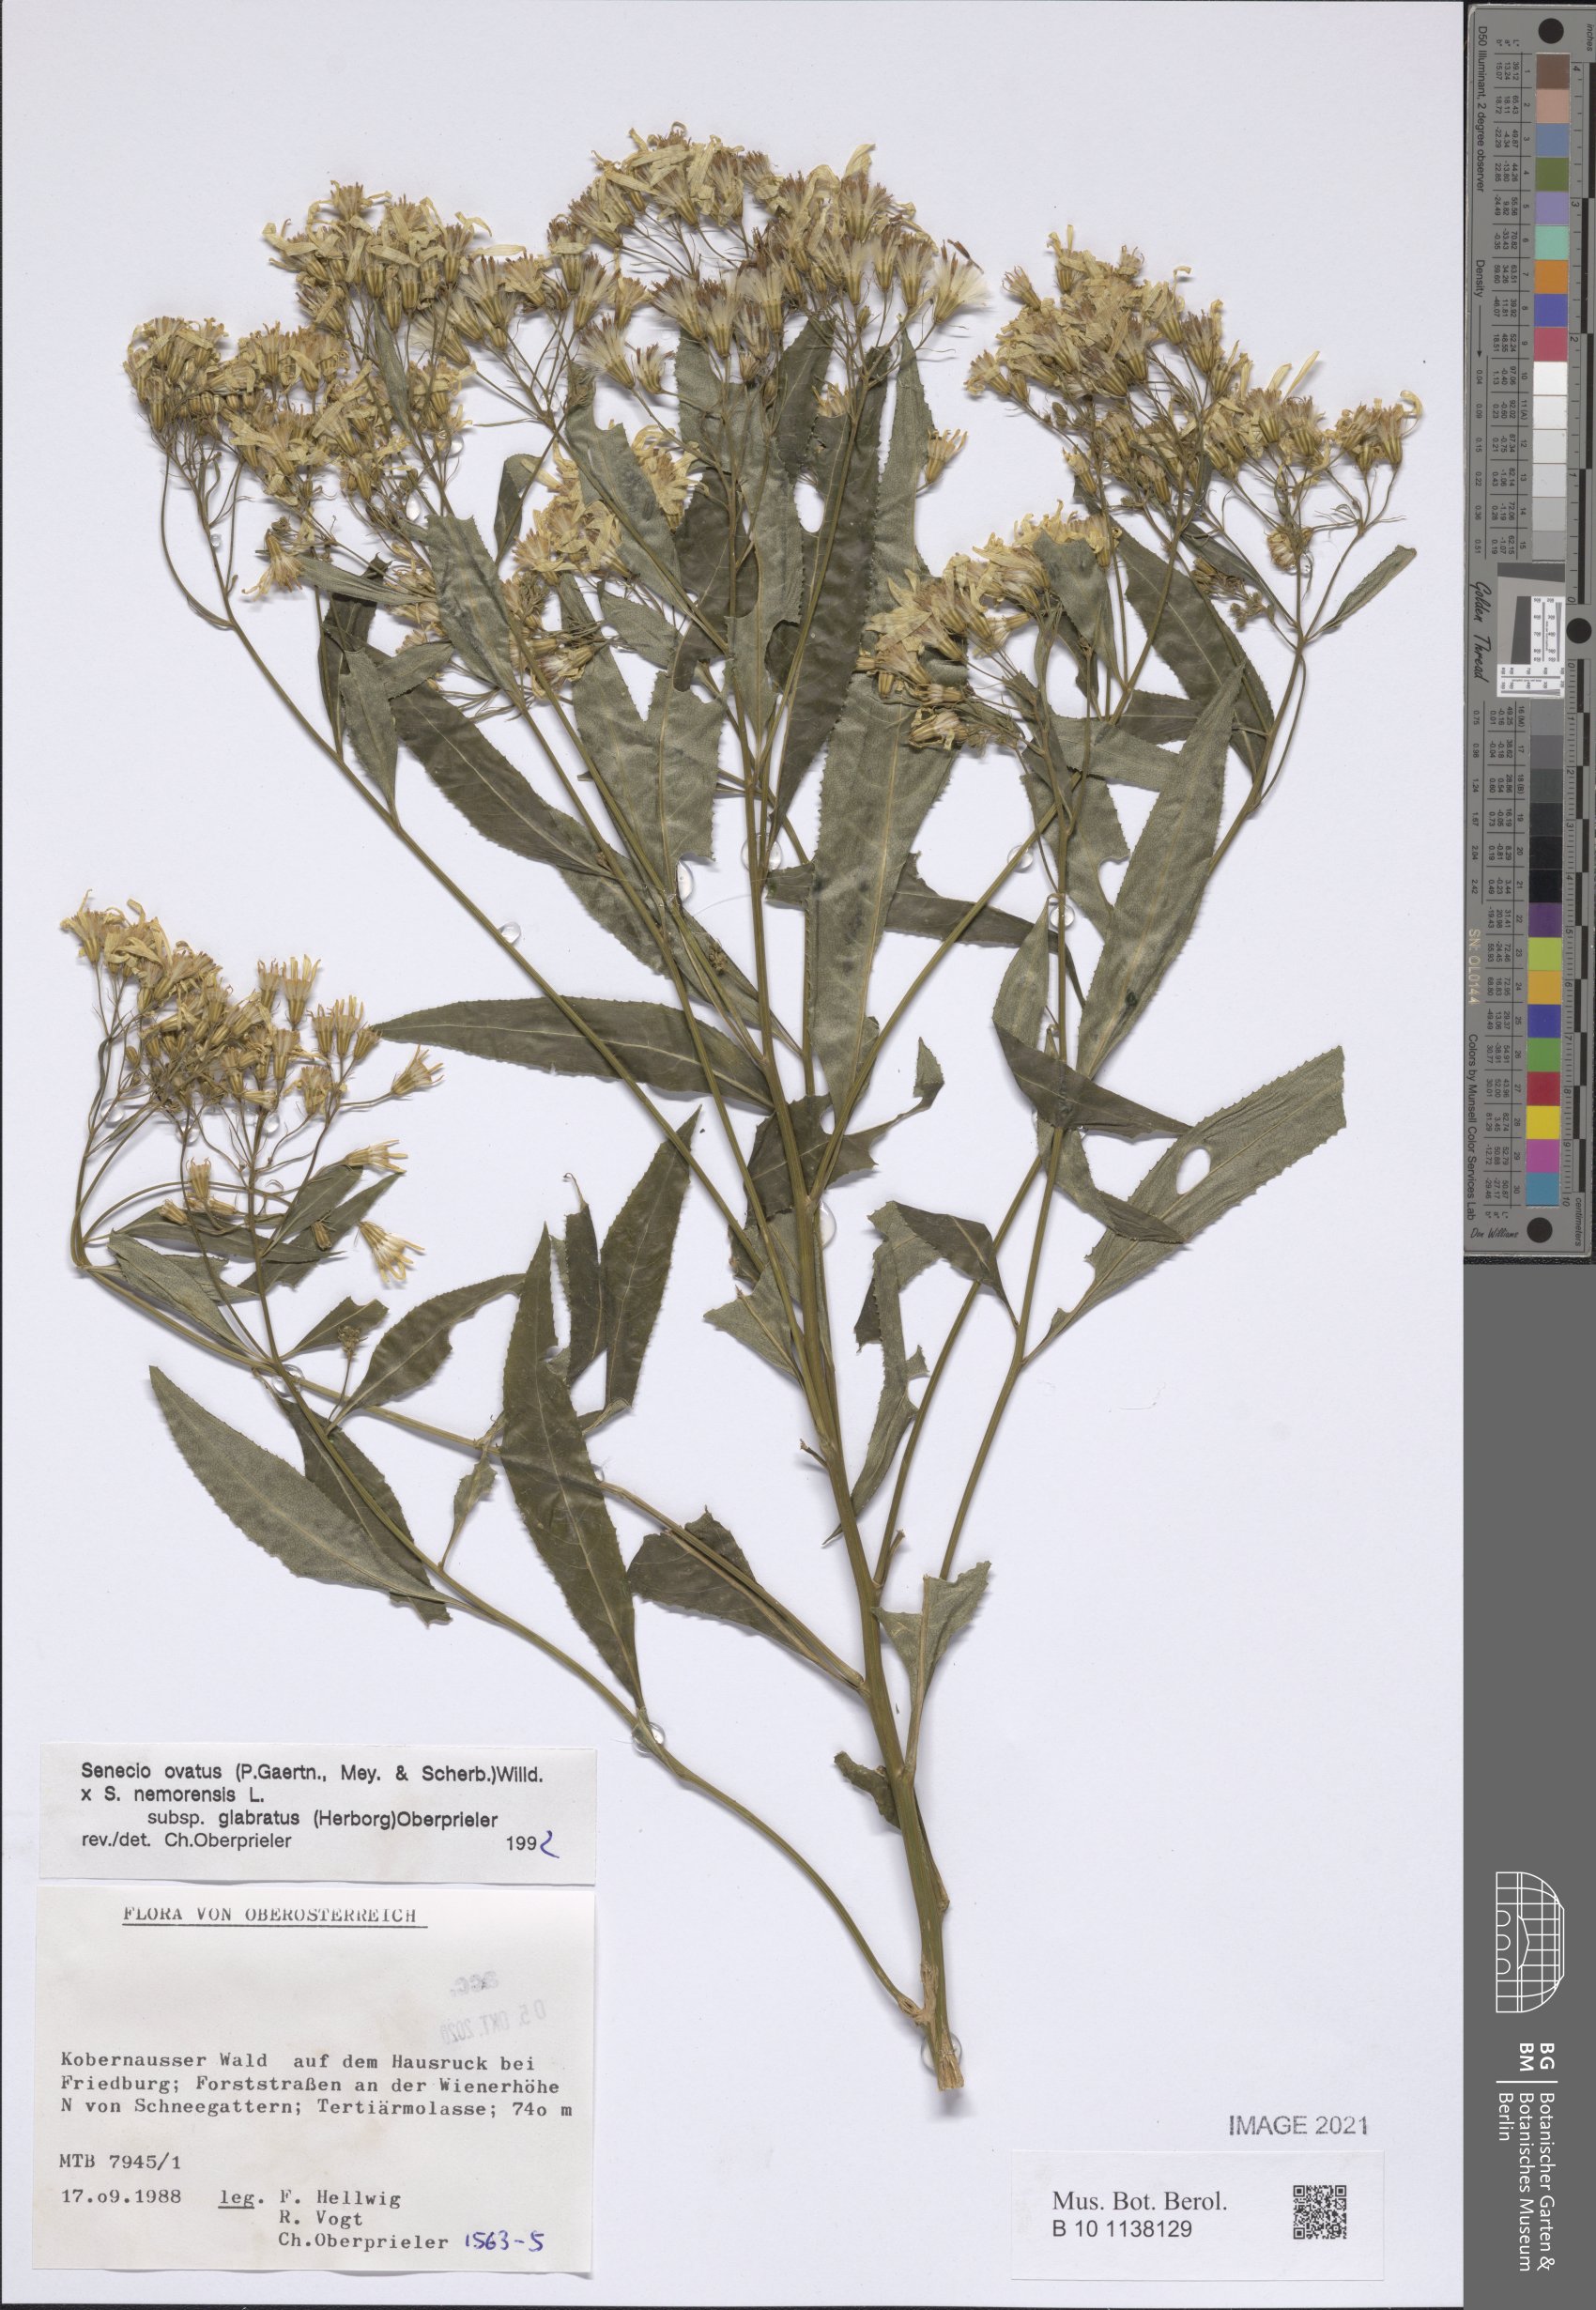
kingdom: Plantae
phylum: Tracheophyta
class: Magnoliopsida
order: Asterales
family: Asteraceae
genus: Senecio
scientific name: Senecio ovatus
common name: Wood ragwort
